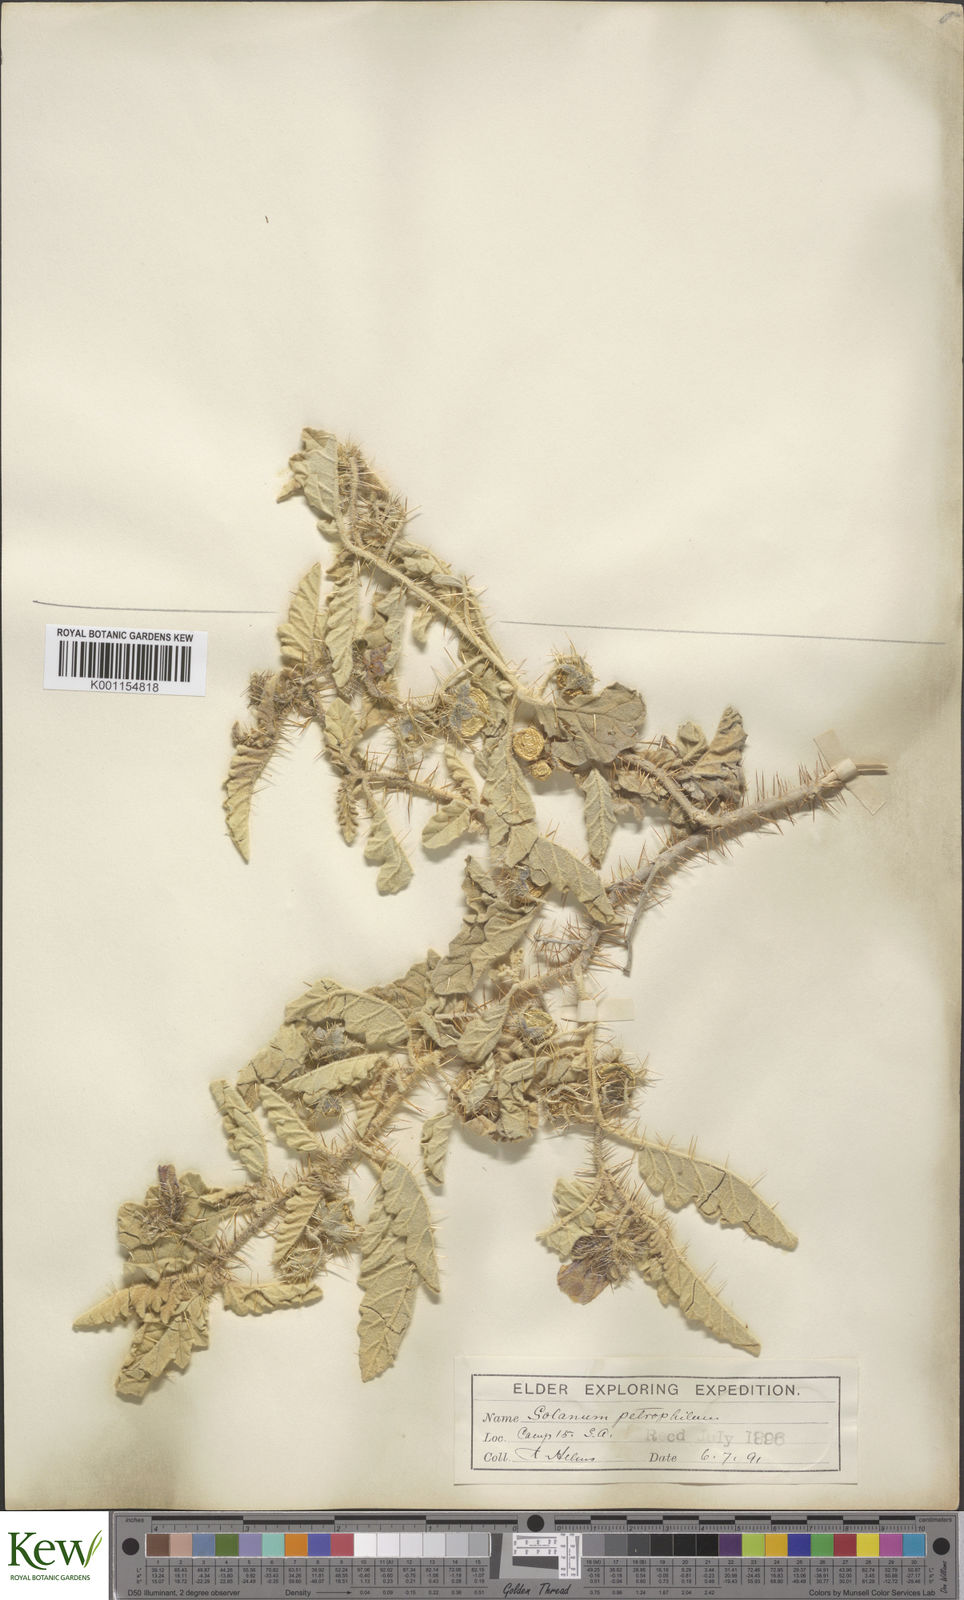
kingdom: Plantae
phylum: Tracheophyta
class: Magnoliopsida
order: Solanales
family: Solanaceae
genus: Solanum
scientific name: Solanum petrophilum
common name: Rock nightshade
